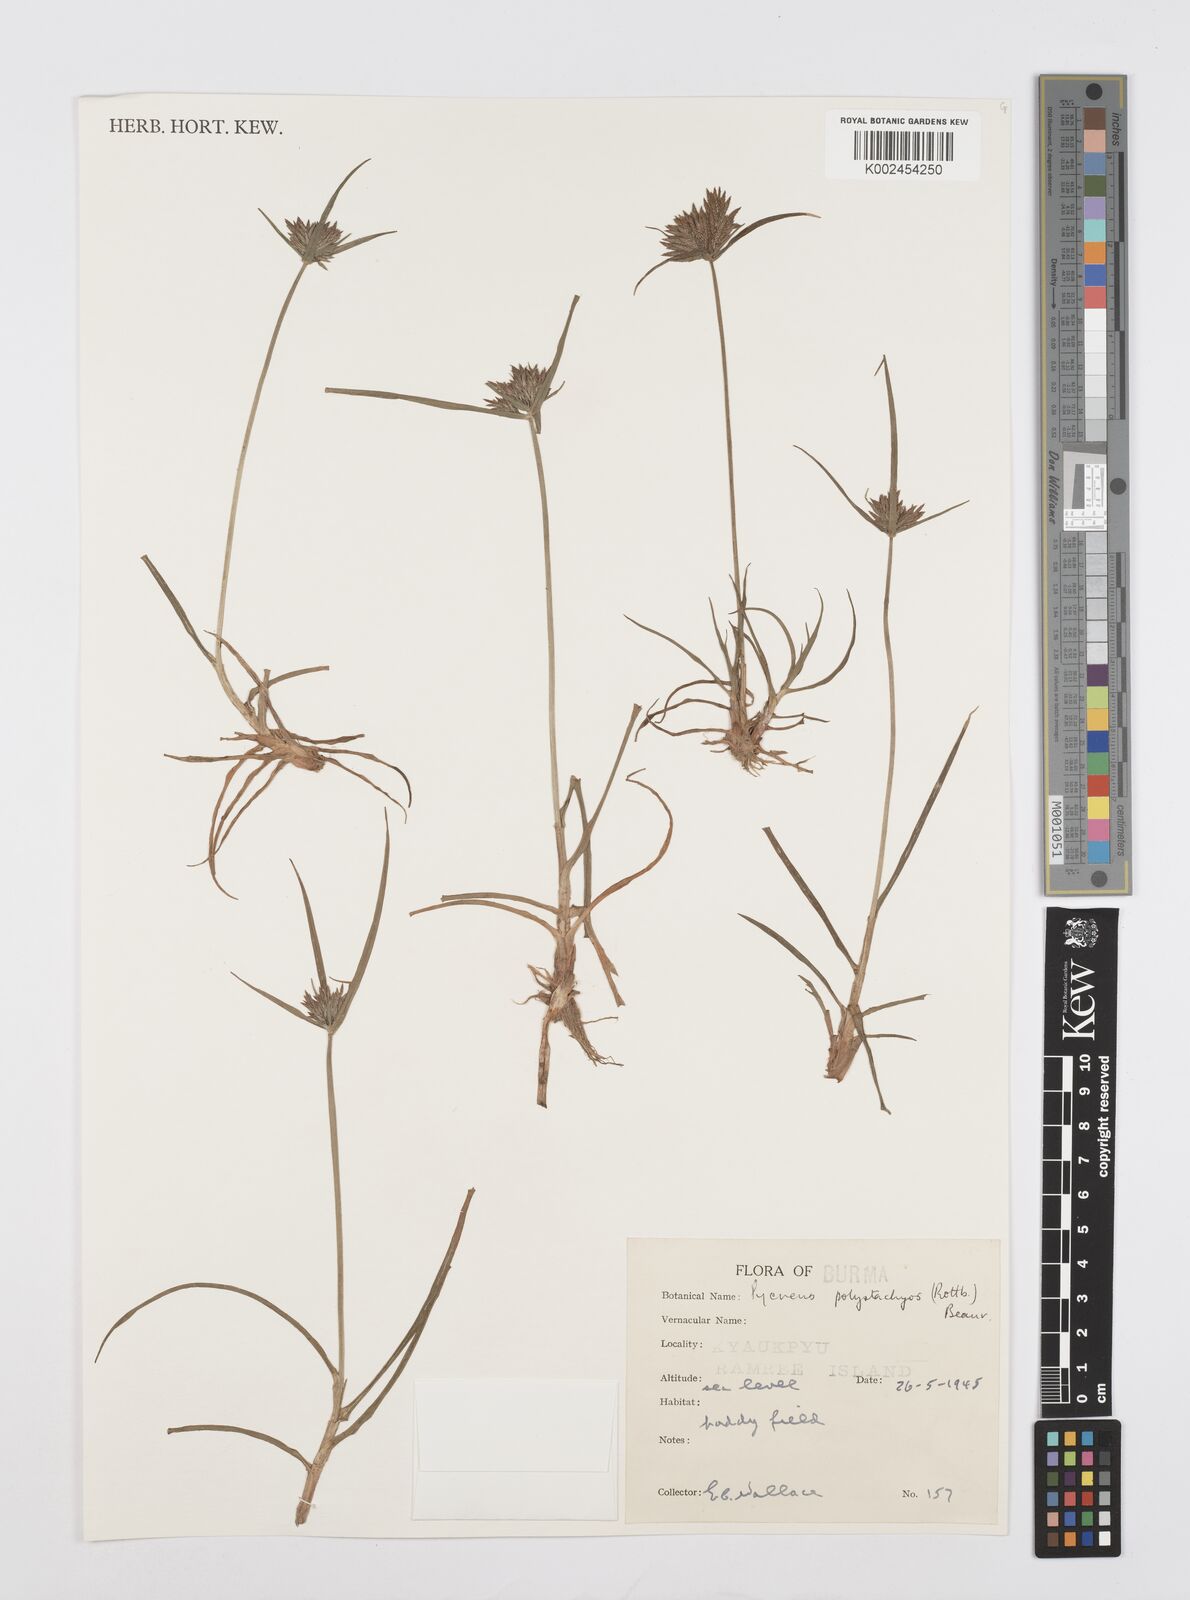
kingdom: Plantae
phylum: Tracheophyta
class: Liliopsida
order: Poales
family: Cyperaceae
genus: Cyperus
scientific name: Cyperus polystachyos
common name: Bunchy flat sedge
